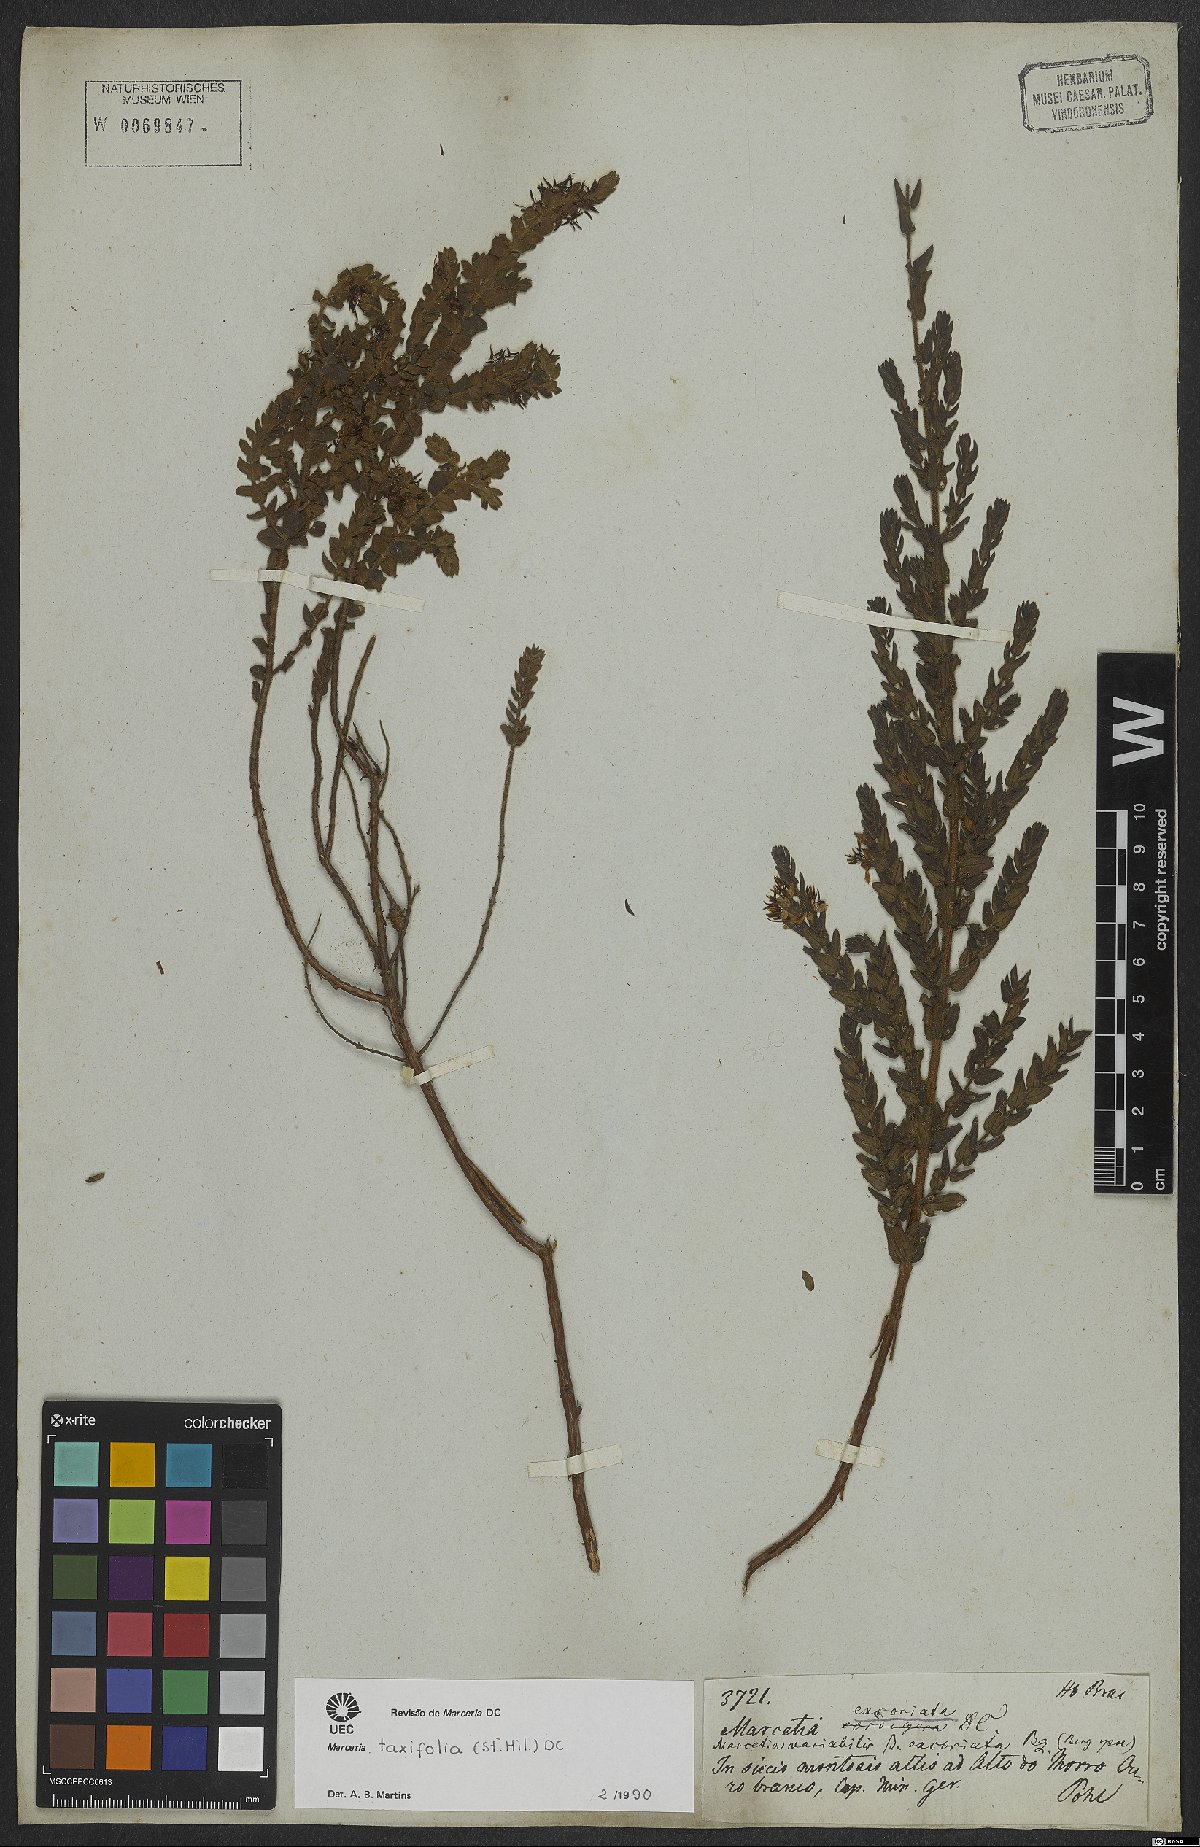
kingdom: Plantae
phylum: Tracheophyta
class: Magnoliopsida
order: Myrtales
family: Melastomataceae
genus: Marcetia
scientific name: Marcetia taxifolia
